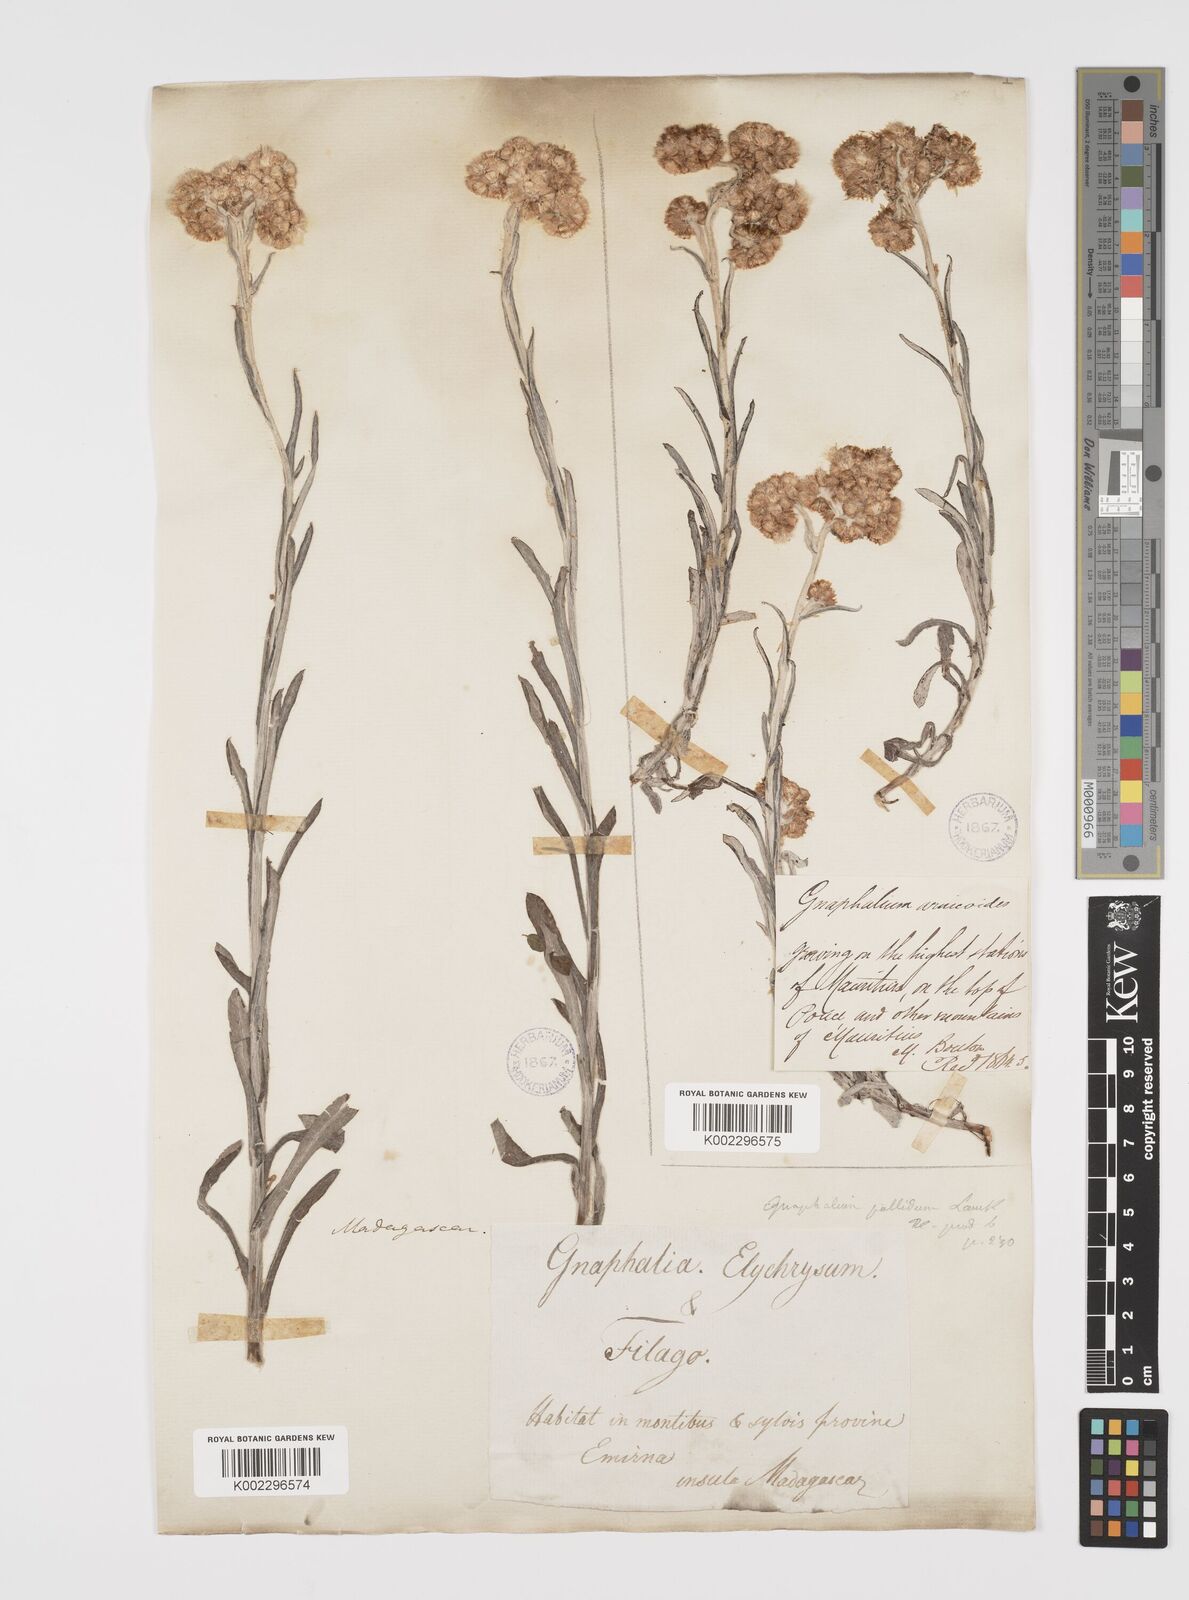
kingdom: Plantae
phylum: Tracheophyta
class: Magnoliopsida
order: Asterales
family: Asteraceae
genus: Helichrysum
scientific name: Helichrysum luteoalbum
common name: Daisy
